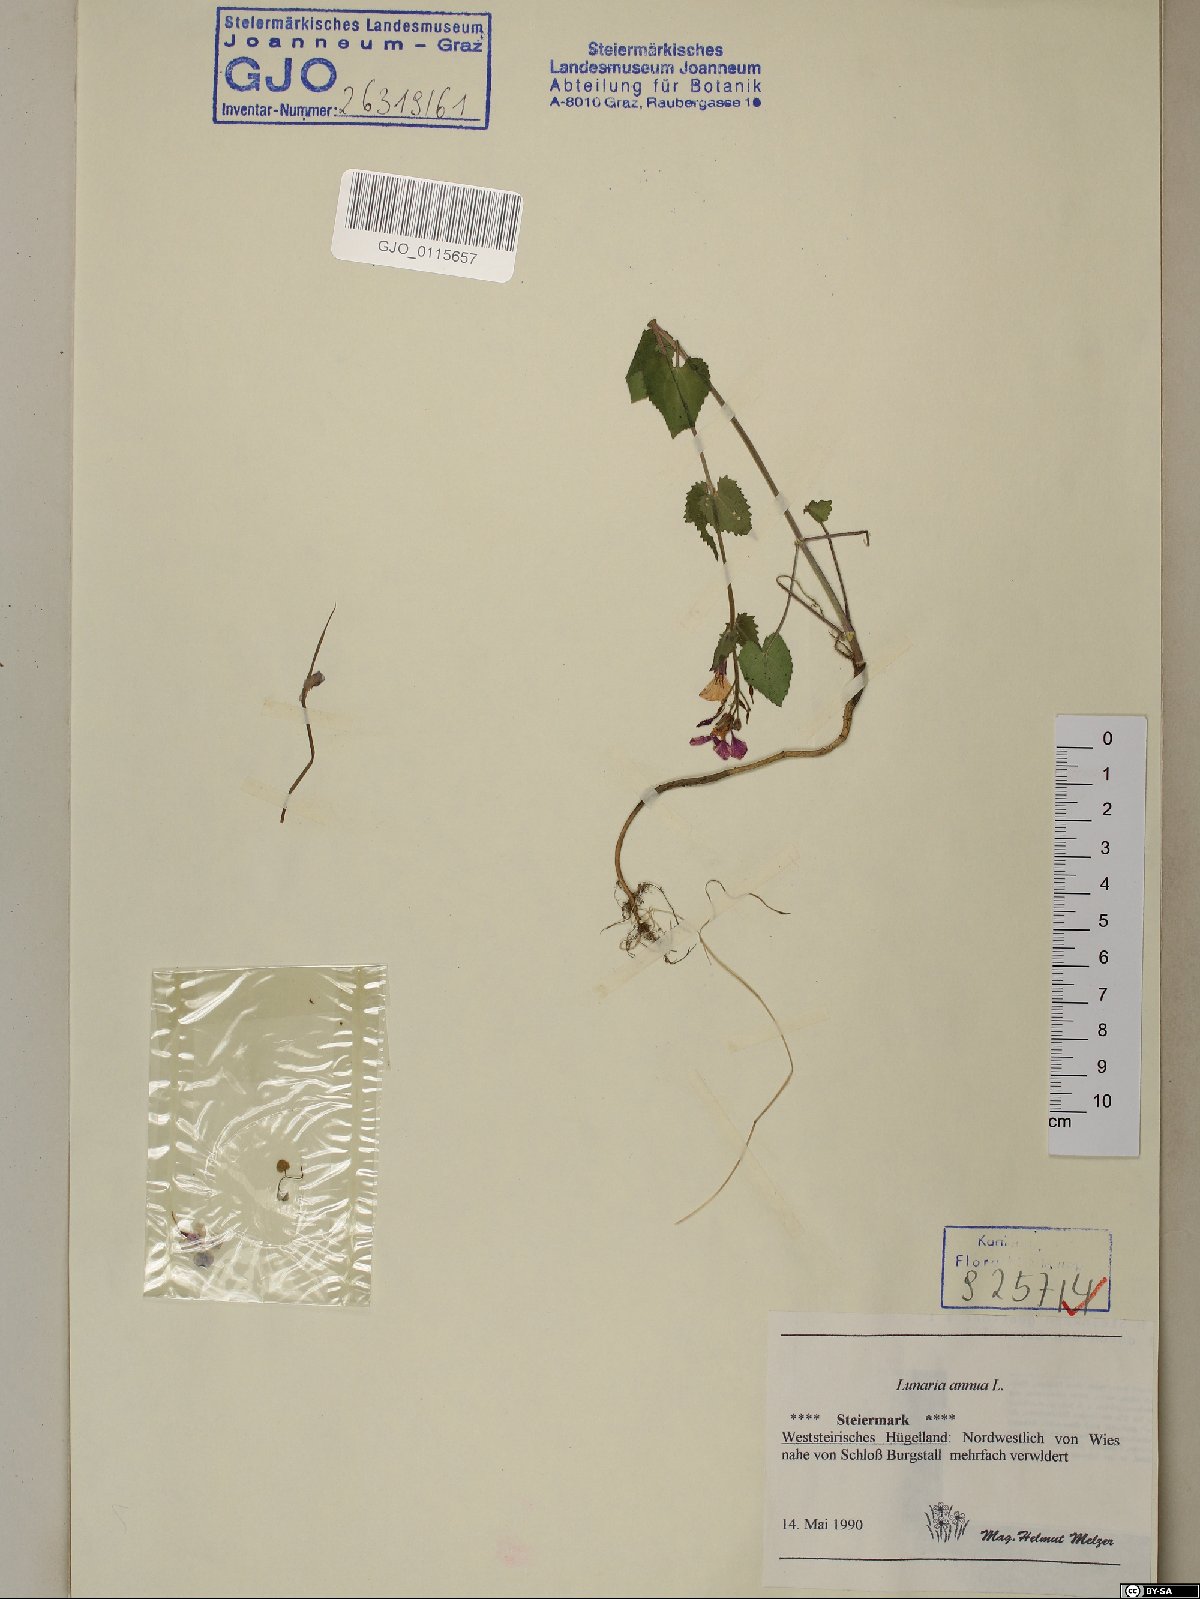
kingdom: Plantae
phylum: Tracheophyta
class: Magnoliopsida
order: Brassicales
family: Brassicaceae
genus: Lunaria
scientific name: Lunaria annua
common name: Honesty
